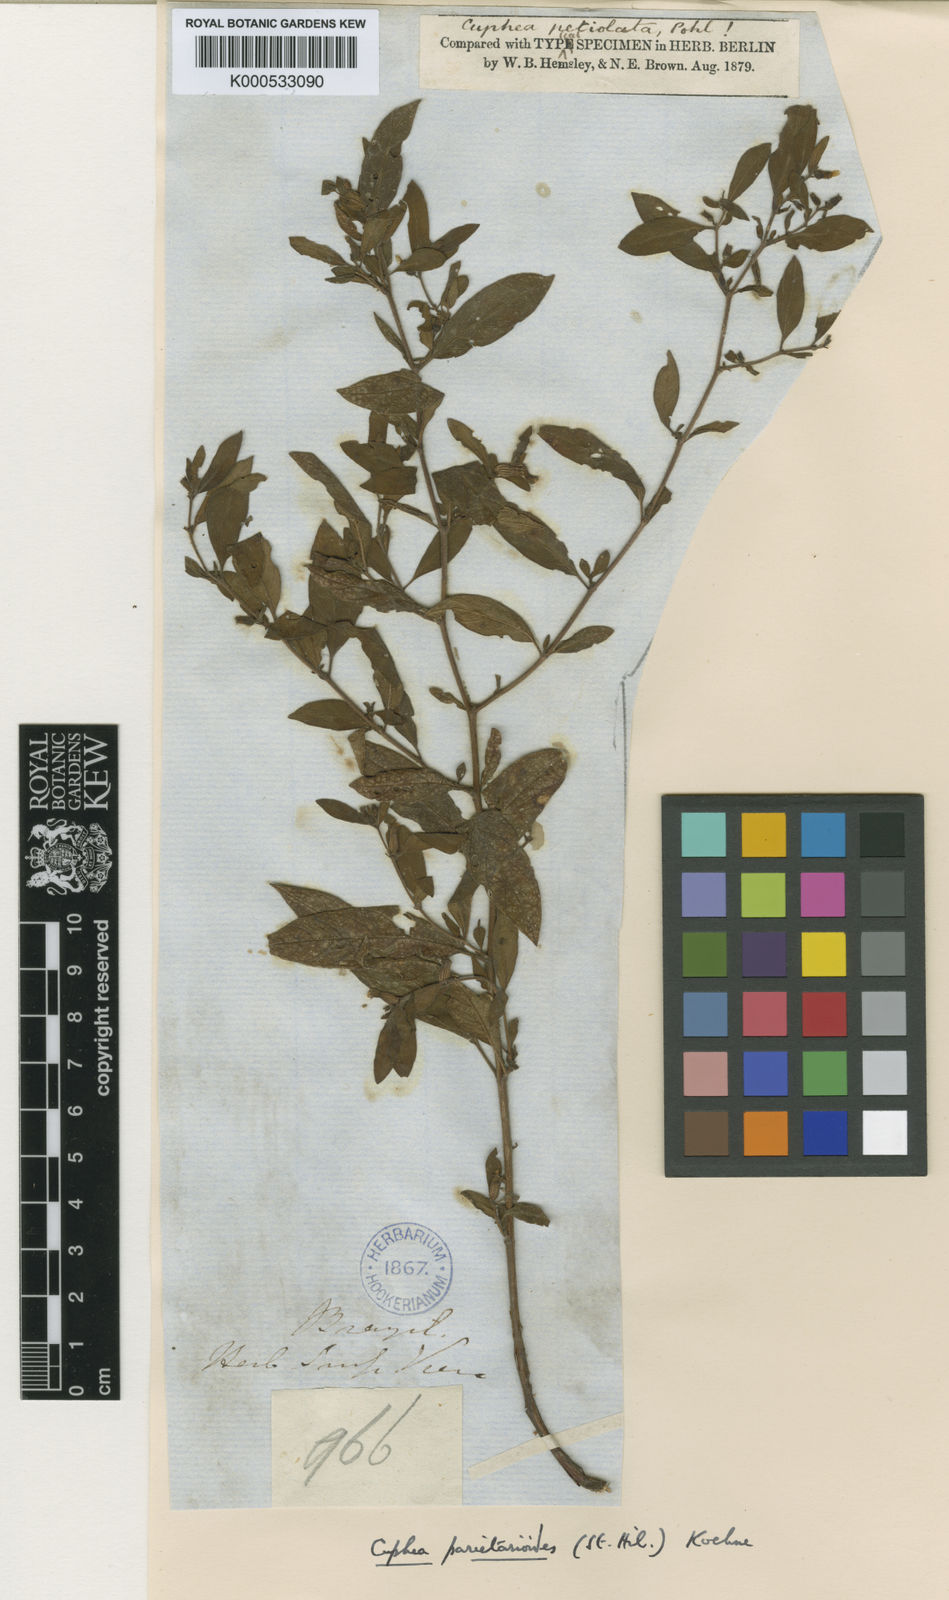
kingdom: Plantae
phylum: Tracheophyta
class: Magnoliopsida
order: Myrtales
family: Lythraceae
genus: Cuphea
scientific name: Cuphea
